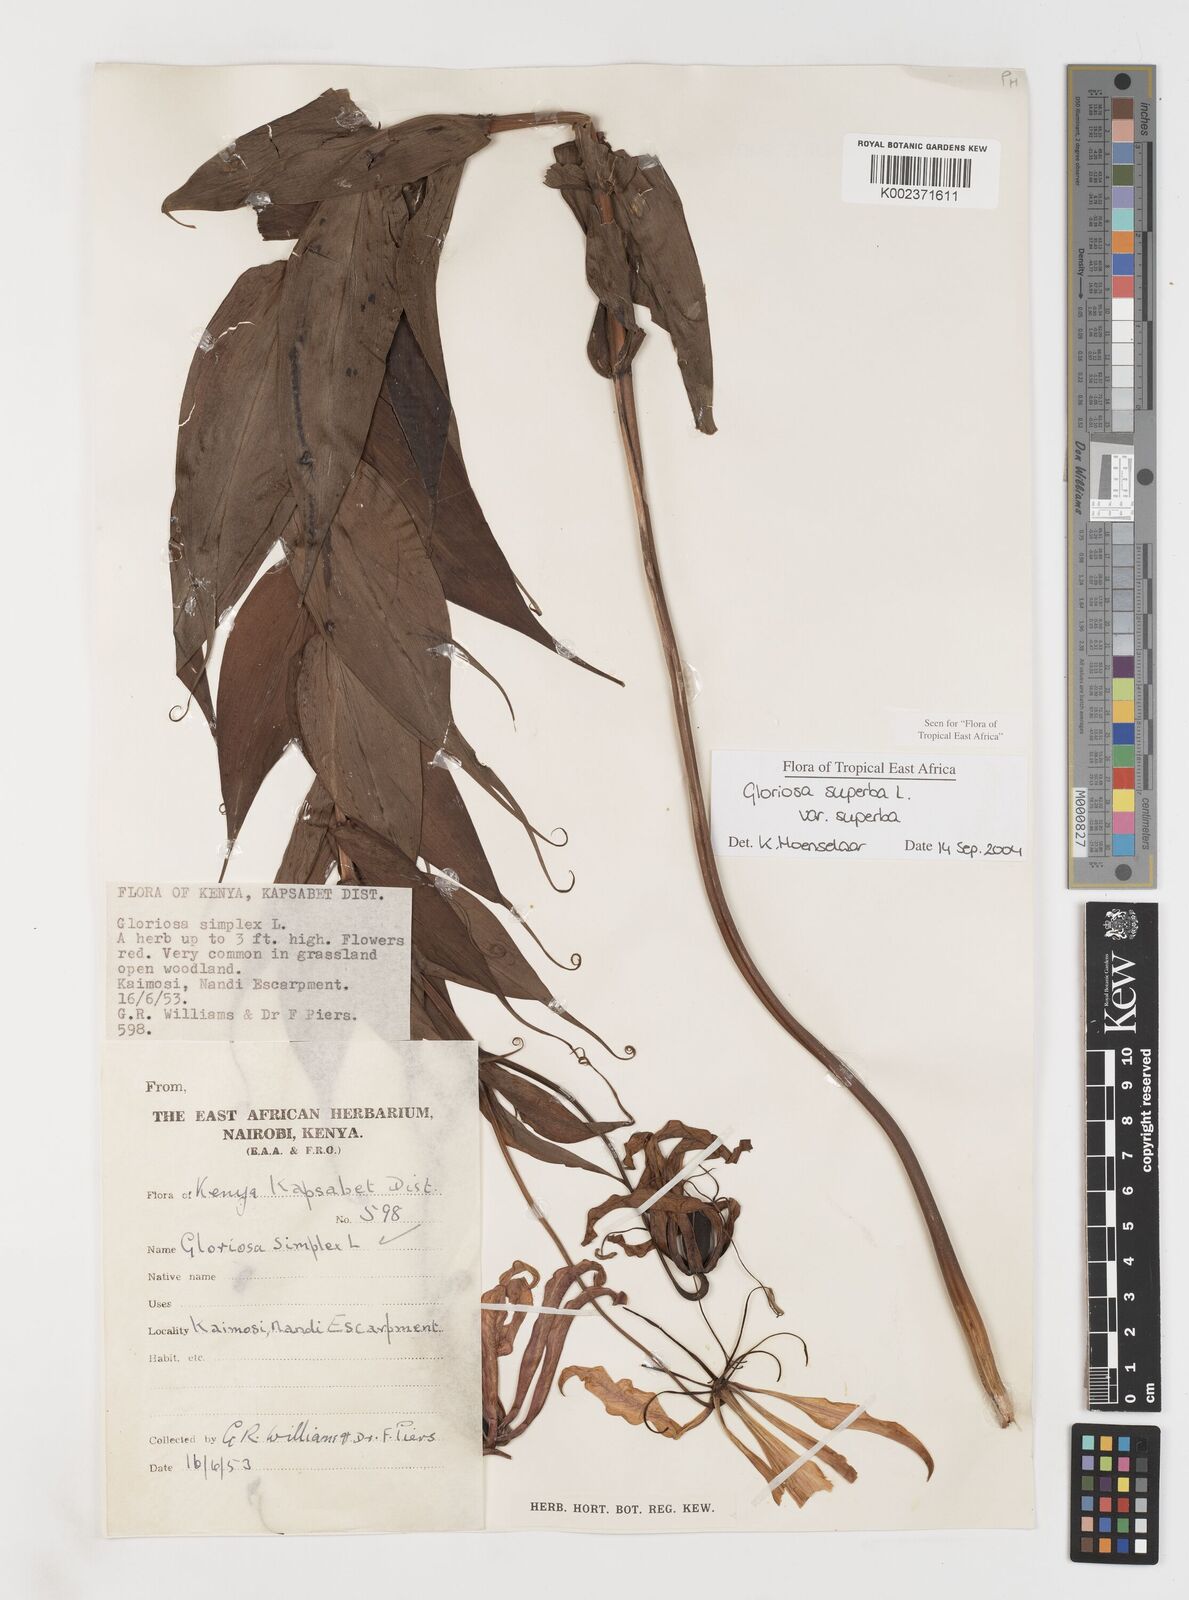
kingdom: Plantae
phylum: Tracheophyta
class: Liliopsida
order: Liliales
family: Colchicaceae
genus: Gloriosa
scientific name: Gloriosa simplex
